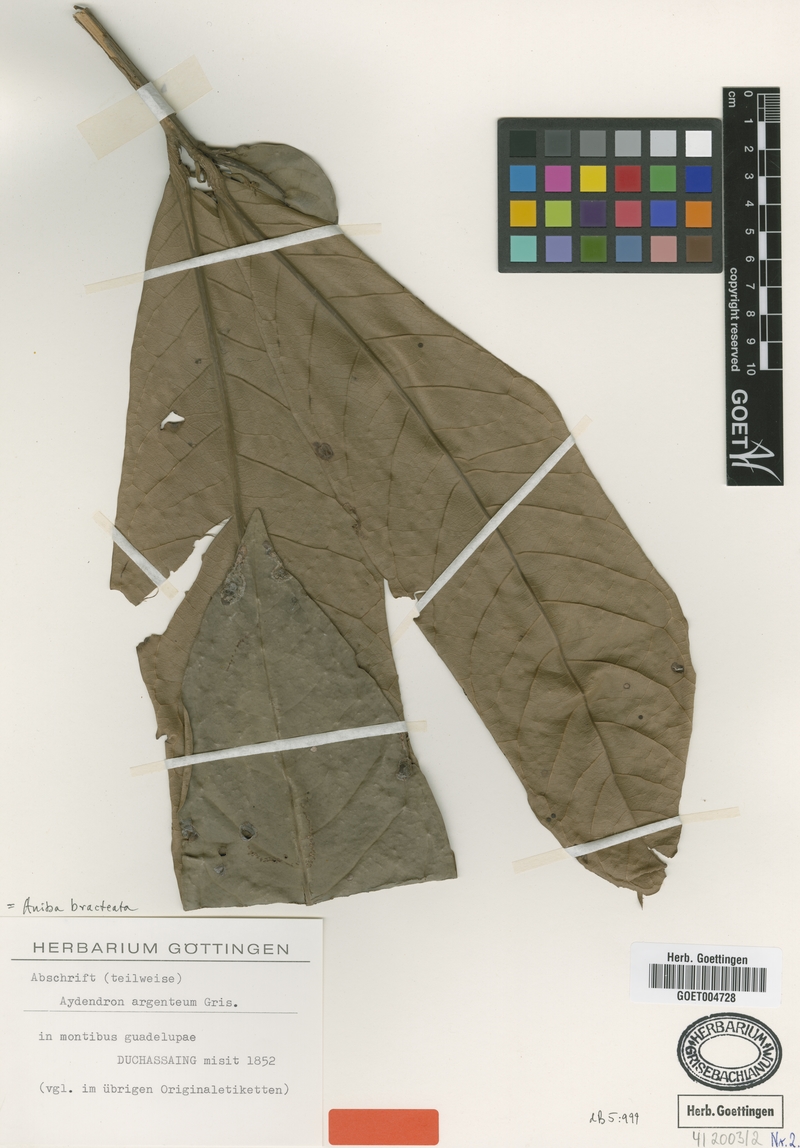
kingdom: Plantae
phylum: Tracheophyta
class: Magnoliopsida
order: Laurales
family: Lauraceae
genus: Aniba
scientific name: Aniba bracteata
